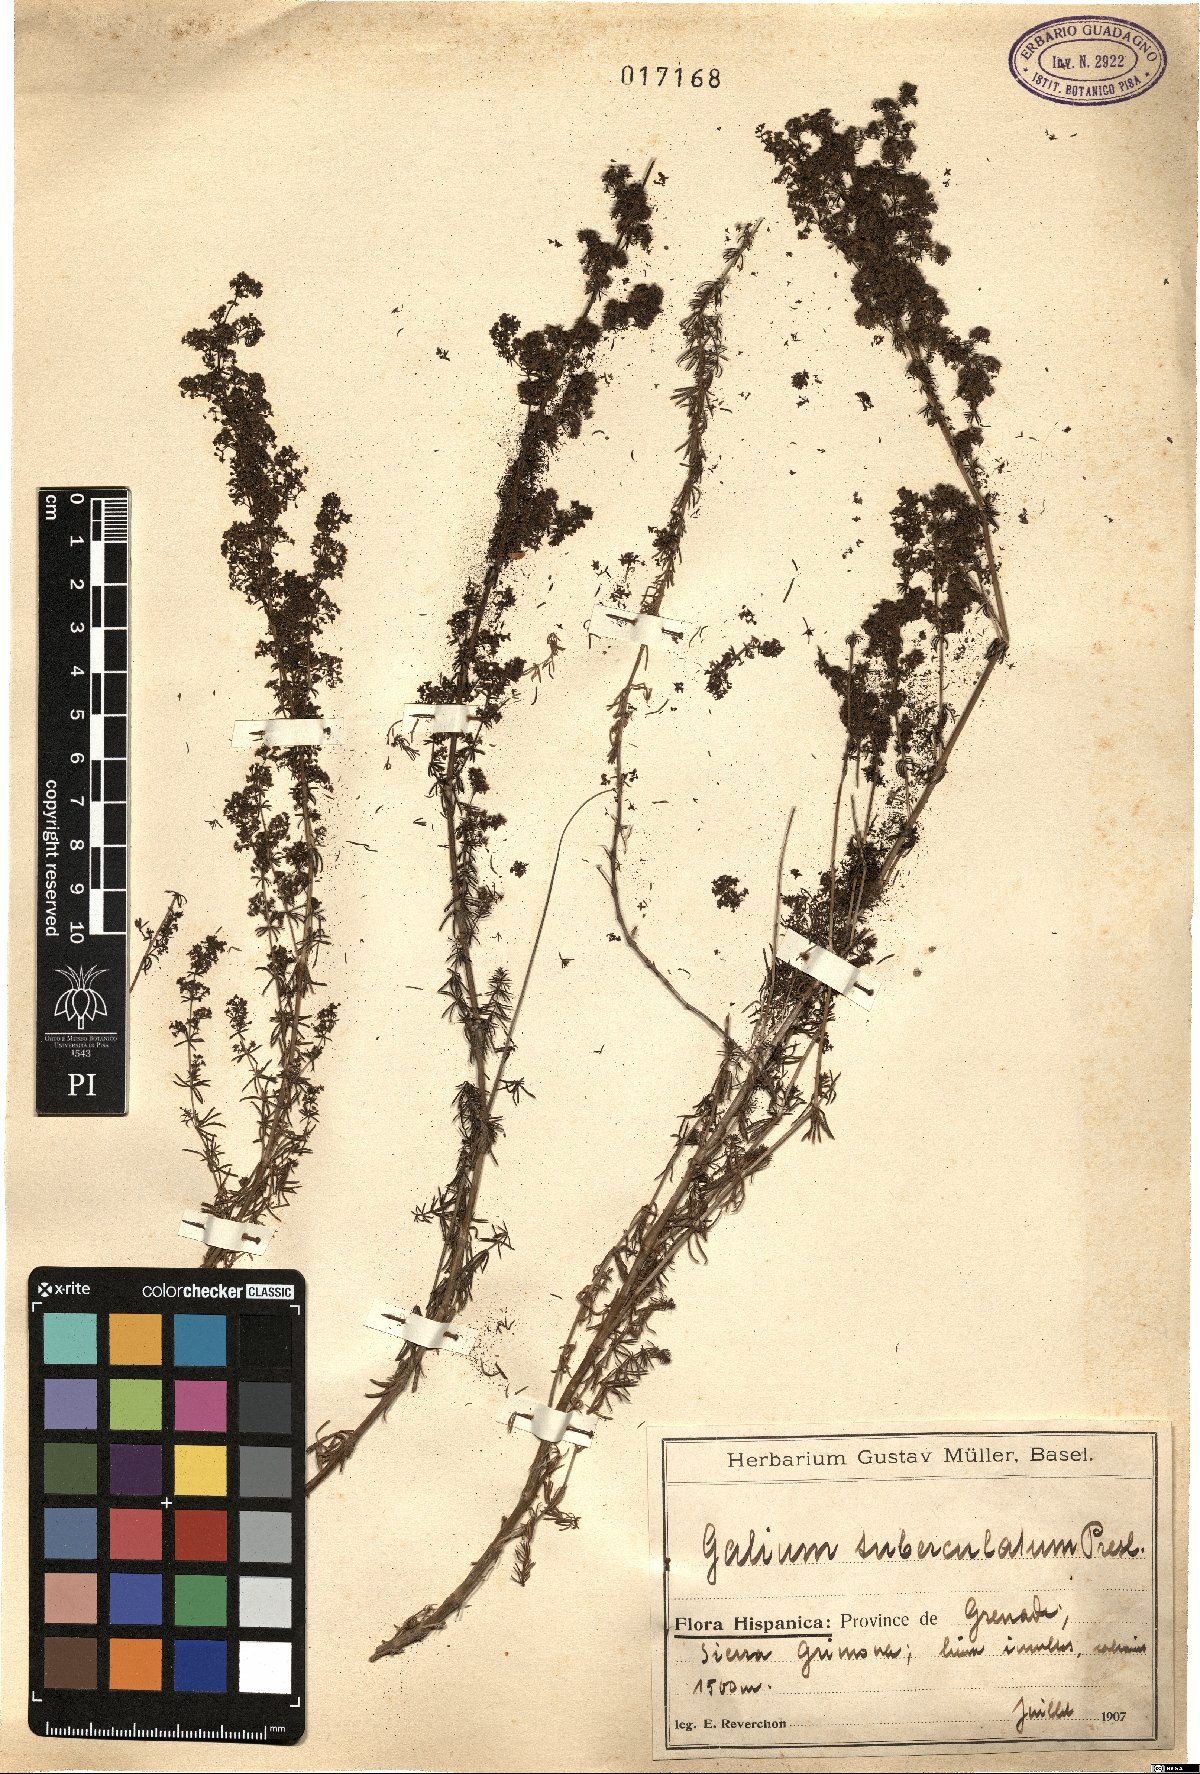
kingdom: Plantae
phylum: Tracheophyta
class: Magnoliopsida
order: Gentianales
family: Rubiaceae
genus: Galium
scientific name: Galium verum
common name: Lady's bedstraw
